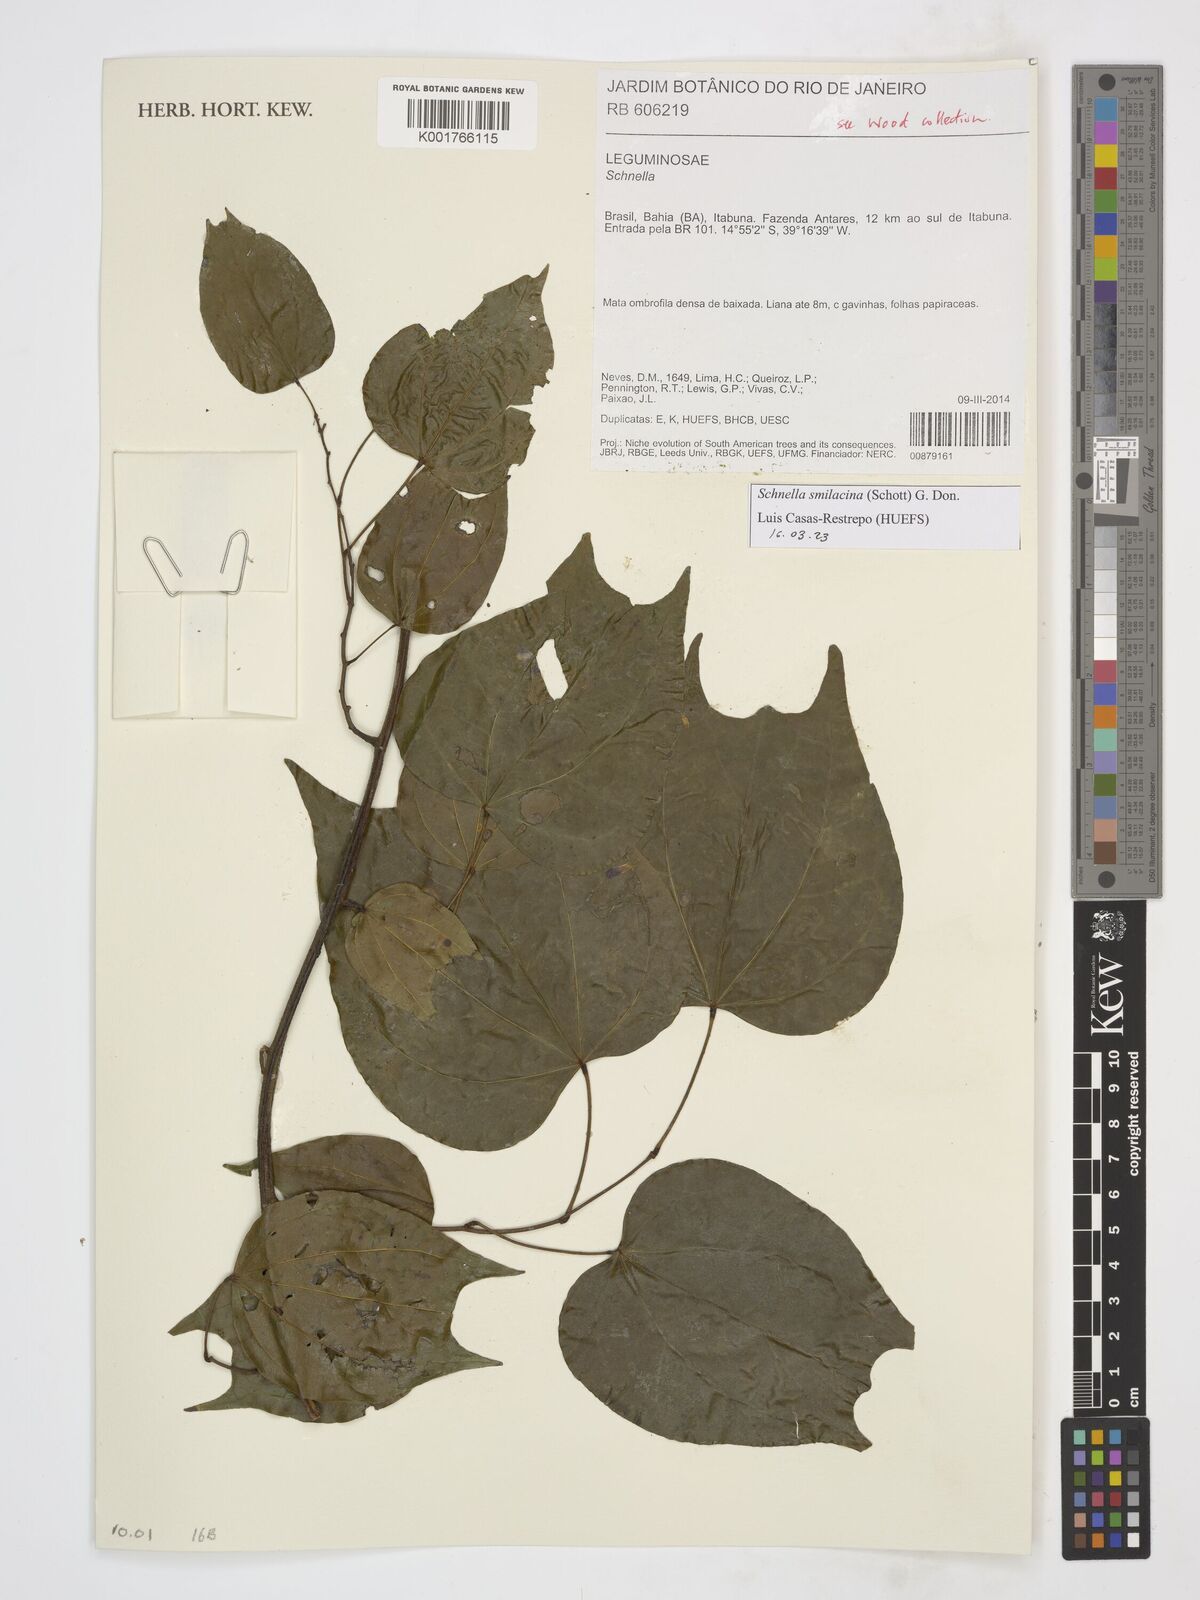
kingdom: Plantae
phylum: Tracheophyta
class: Magnoliopsida
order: Fabales
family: Fabaceae
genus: Schnella
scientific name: Schnella smilacina
